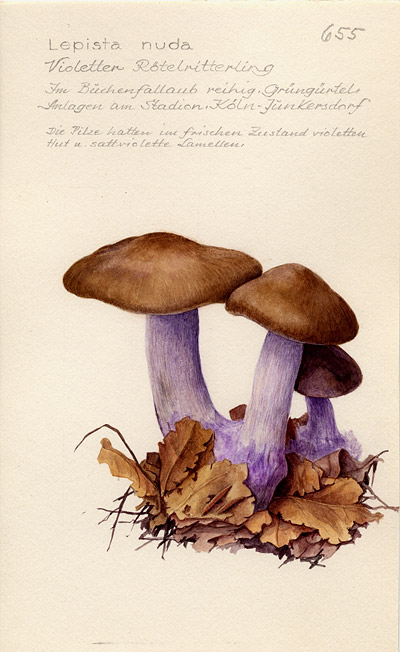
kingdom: Fungi
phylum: Basidiomycota
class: Agaricomycetes
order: Agaricales
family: Tricholomataceae
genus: Lepista
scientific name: Lepista nuda
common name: Wood blewit
